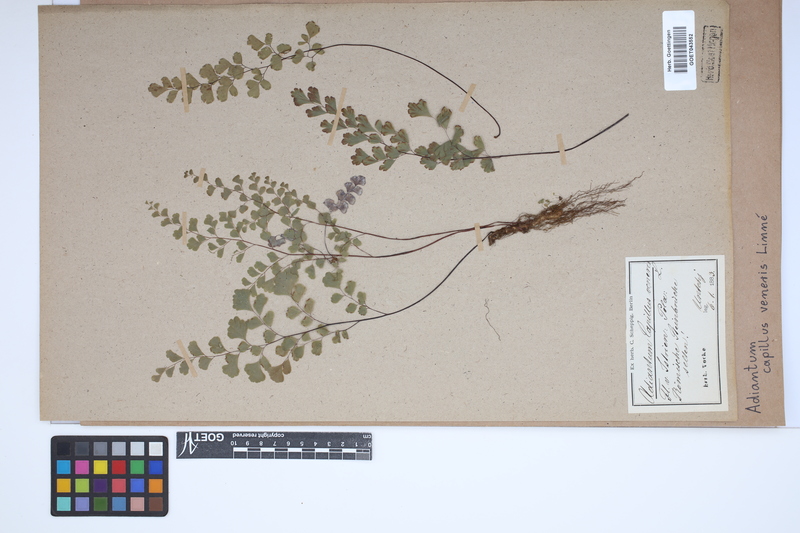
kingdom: Plantae
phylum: Tracheophyta
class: Polypodiopsida
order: Polypodiales
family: Pteridaceae
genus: Adiantum
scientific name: Adiantum capillus-veneris
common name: Maidenhair fern
